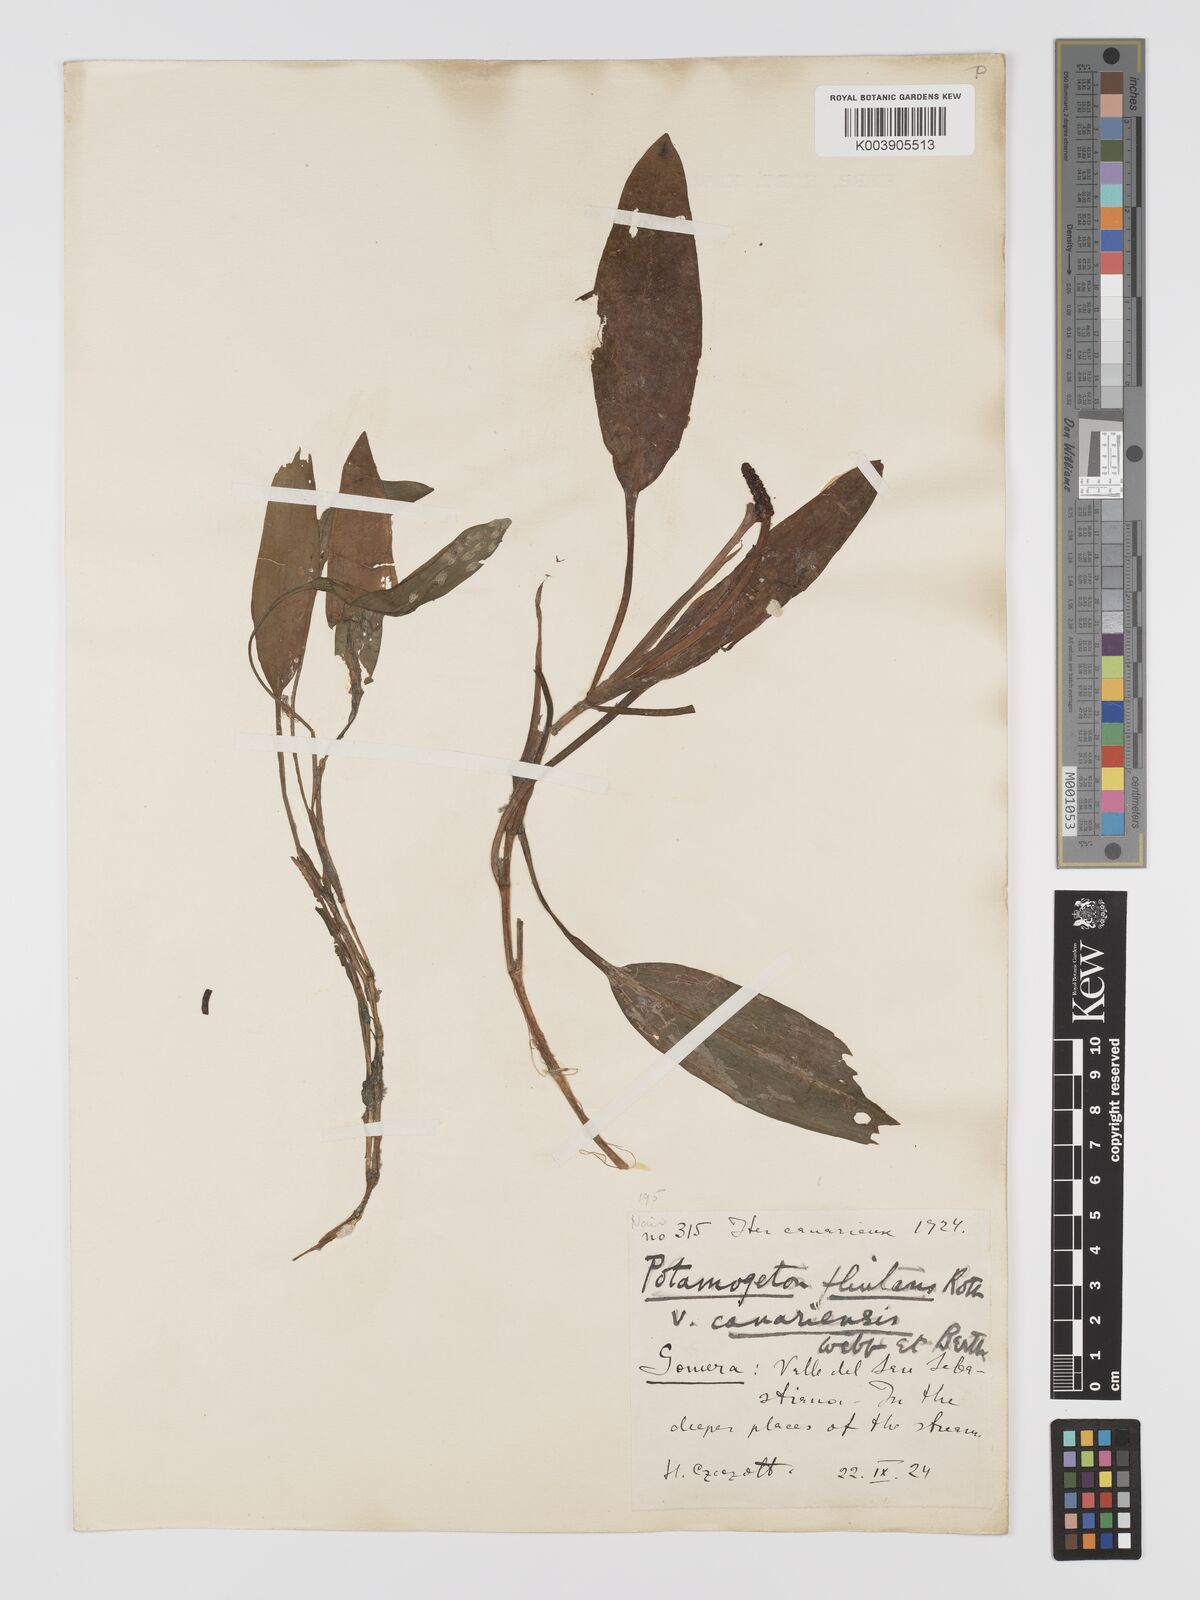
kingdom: Plantae
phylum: Tracheophyta
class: Liliopsida
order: Alismatales
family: Potamogetonaceae
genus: Potamogeton
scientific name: Potamogeton nodosus
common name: Loddon pondweed
